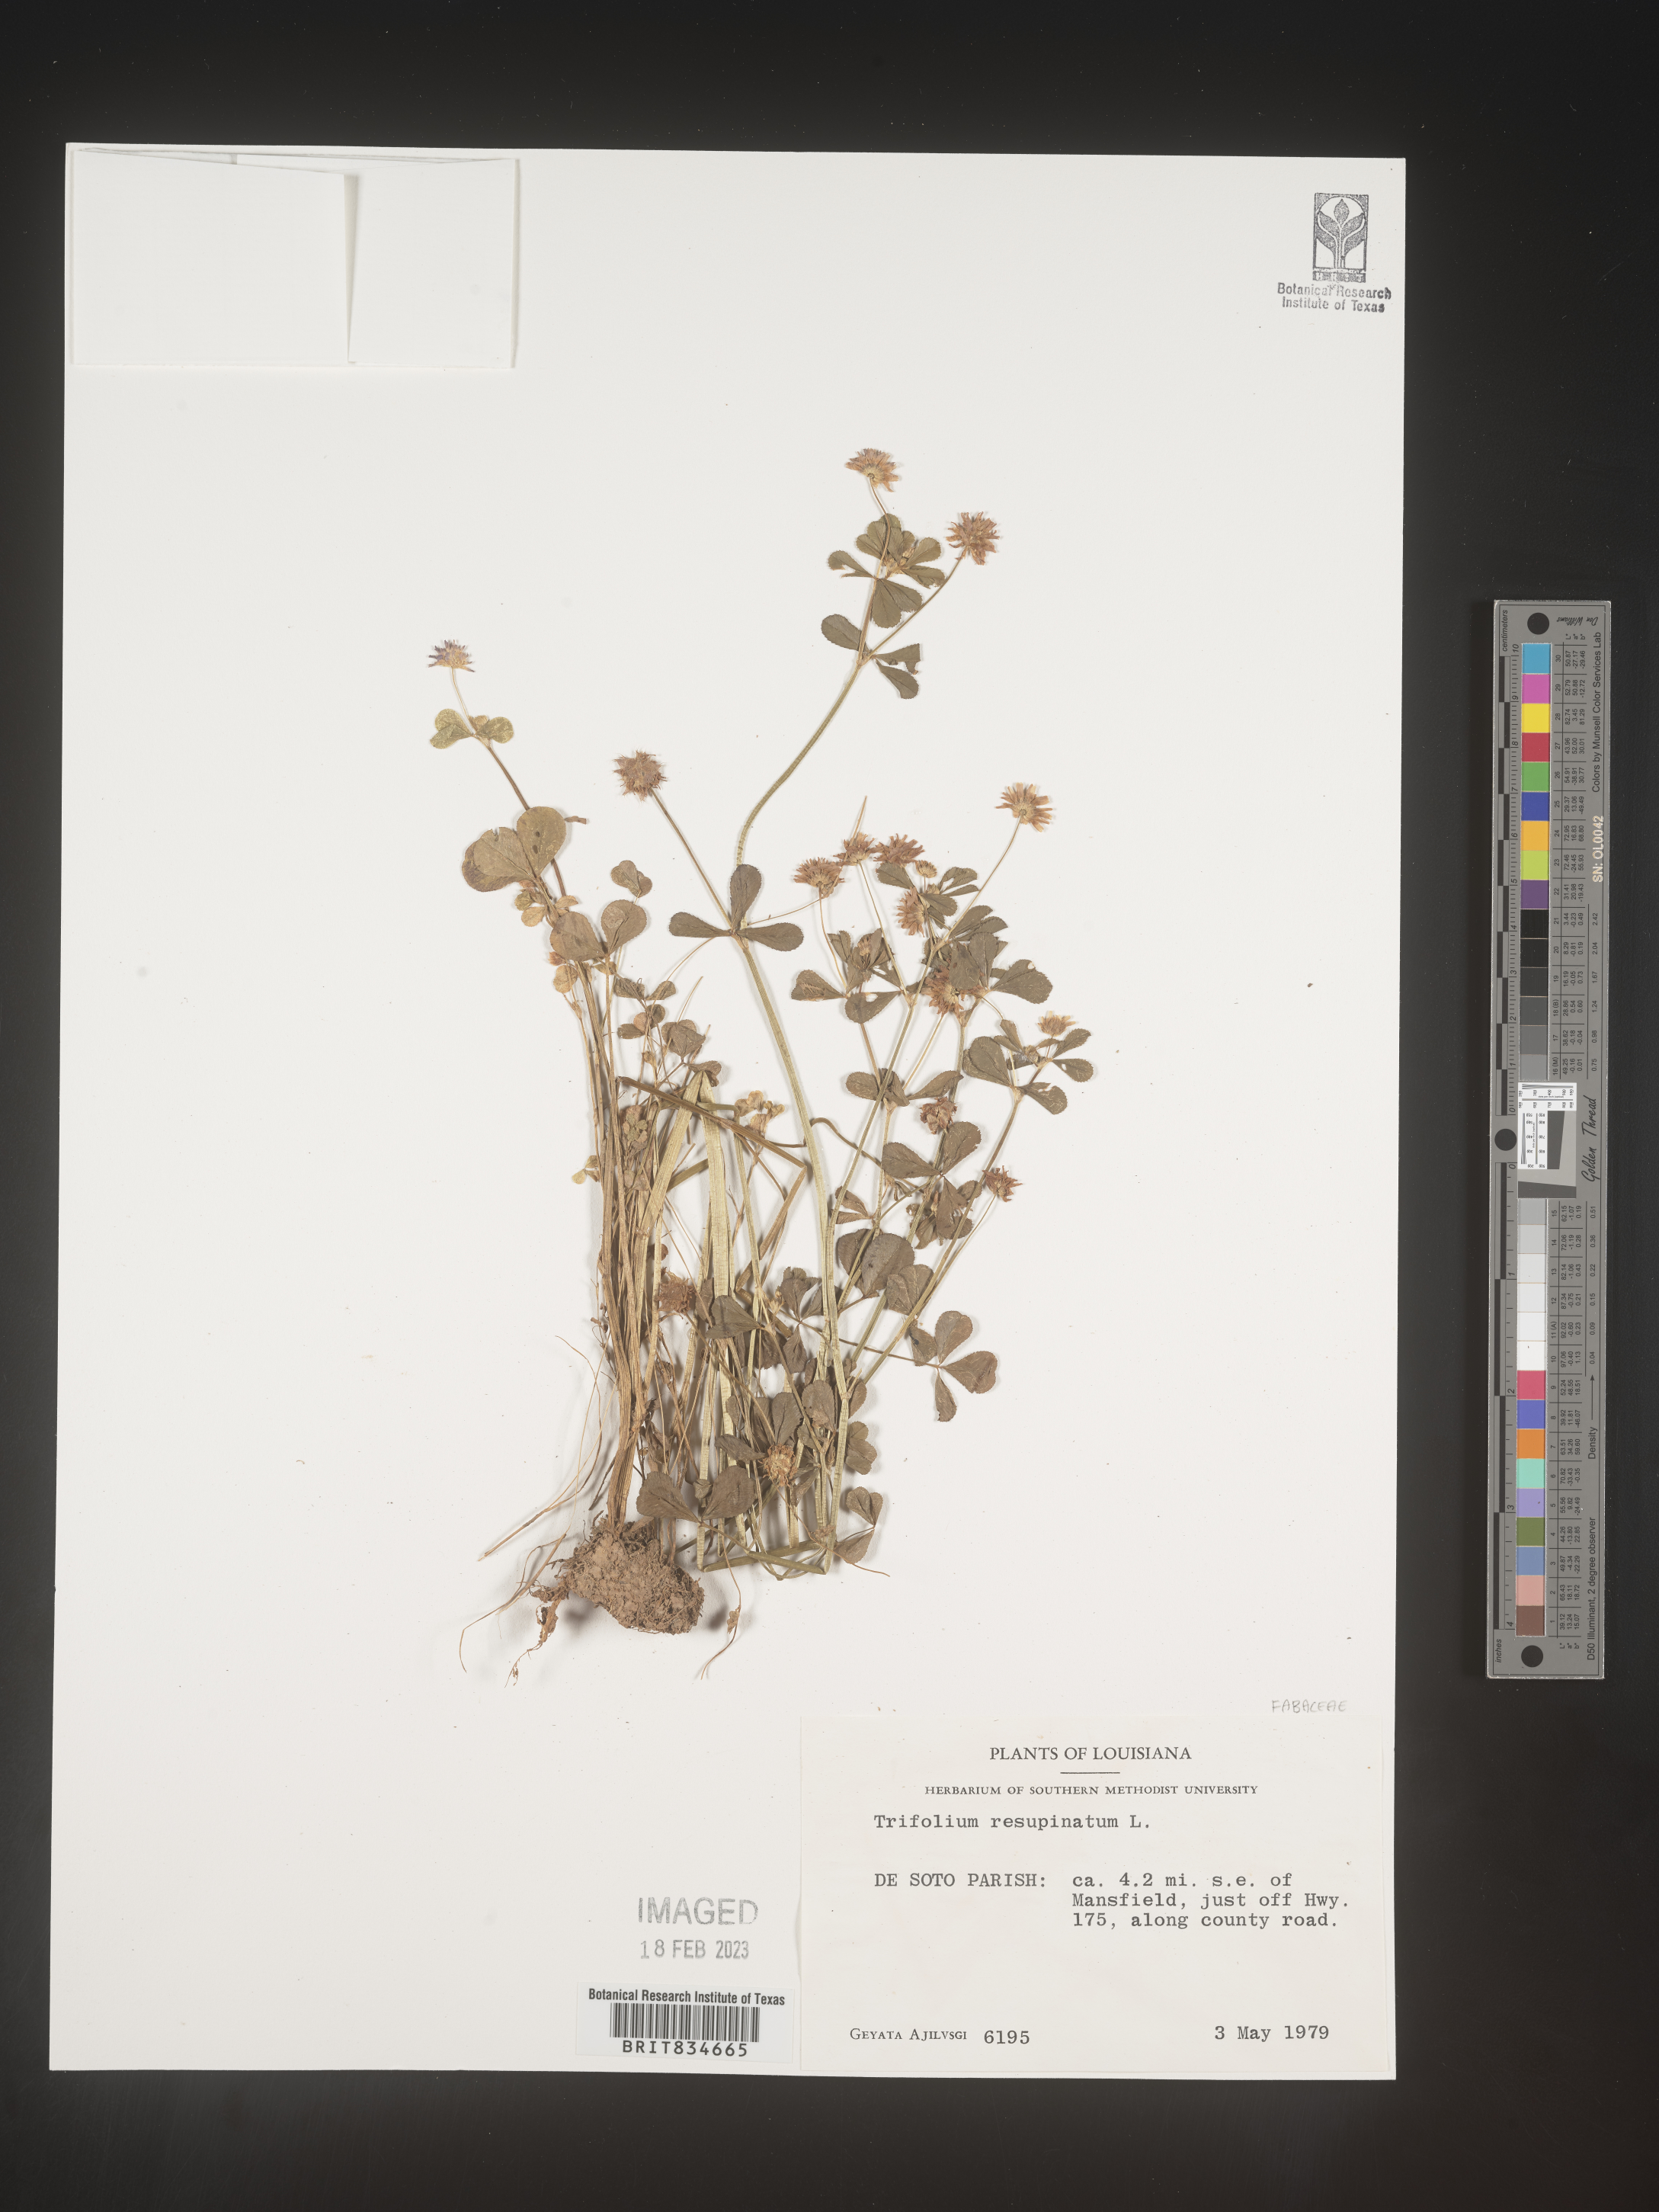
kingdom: Plantae
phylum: Tracheophyta
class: Magnoliopsida
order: Fabales
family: Fabaceae
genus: Trifolium
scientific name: Trifolium resupinatum
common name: Reversed clover
